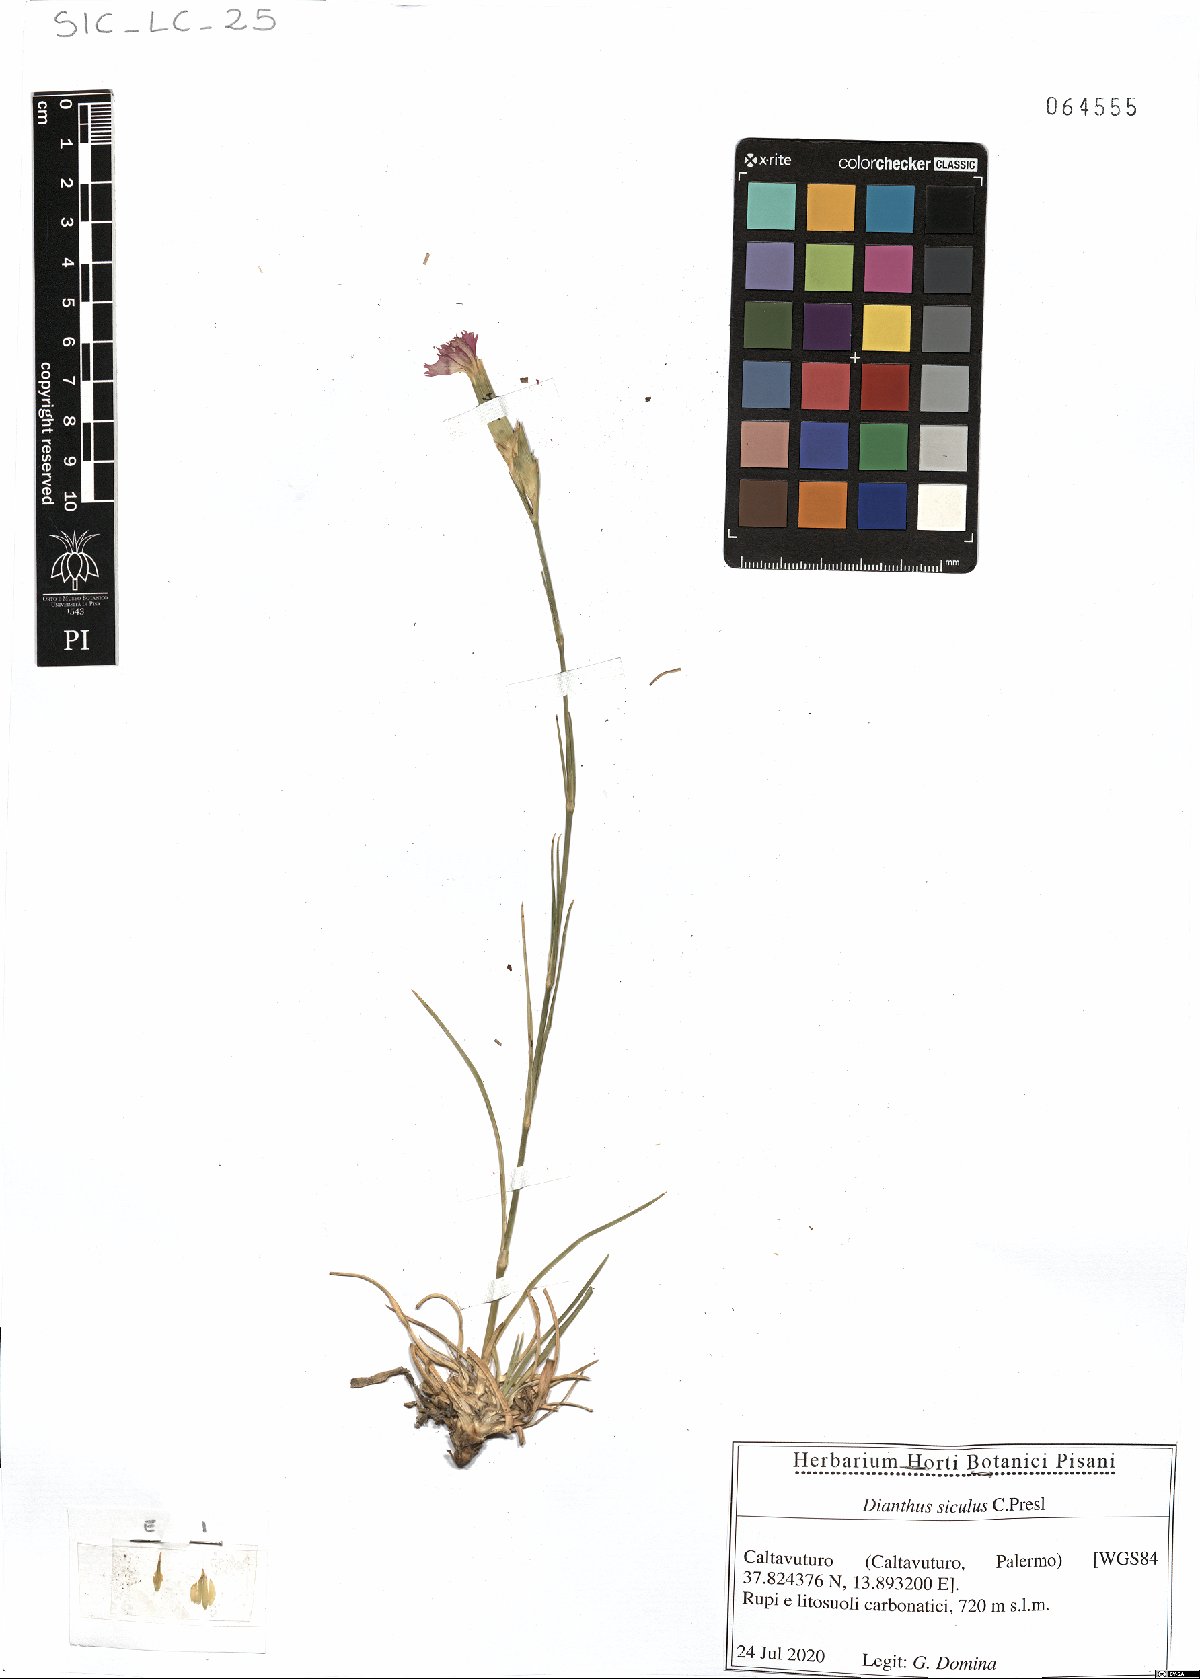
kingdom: Plantae
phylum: Tracheophyta
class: Magnoliopsida
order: Caryophyllales
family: Caryophyllaceae
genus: Dianthus
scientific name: Dianthus siculus
